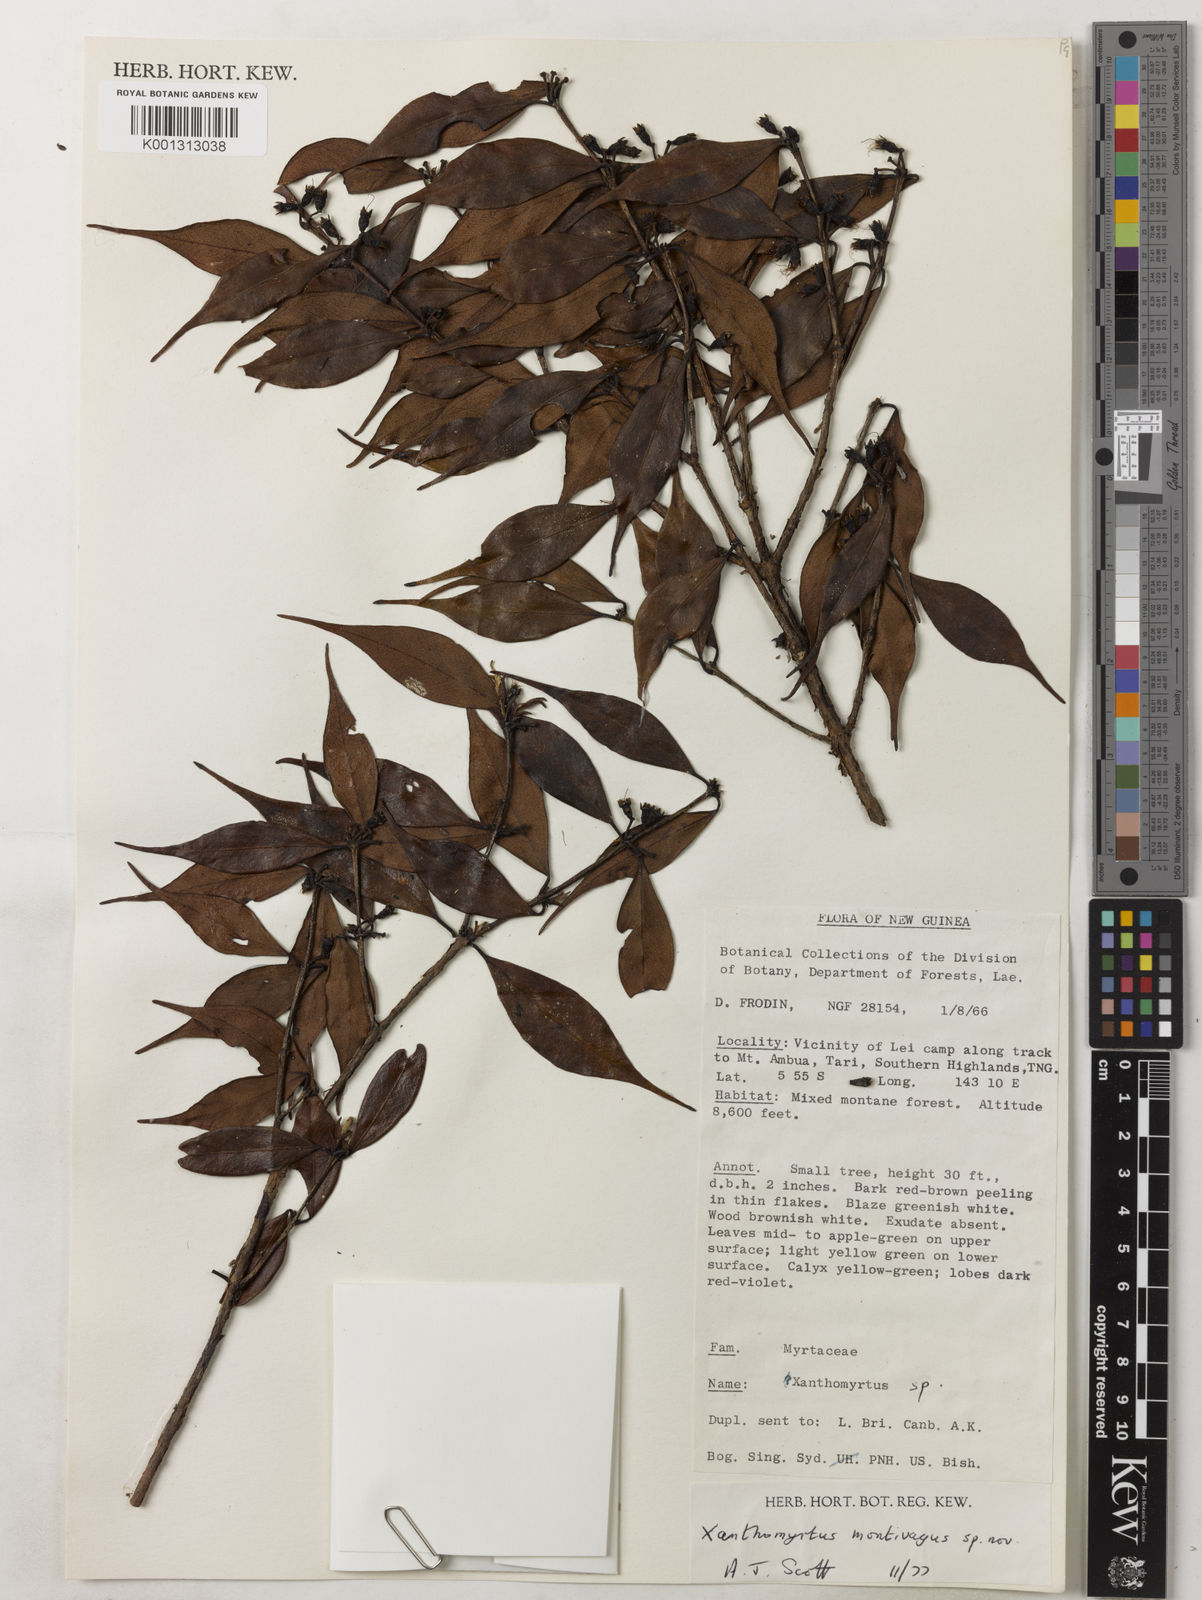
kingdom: Plantae
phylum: Tracheophyta
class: Magnoliopsida
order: Myrtales
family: Myrtaceae
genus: Xanthomyrtus
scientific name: Xanthomyrtus montivaga
